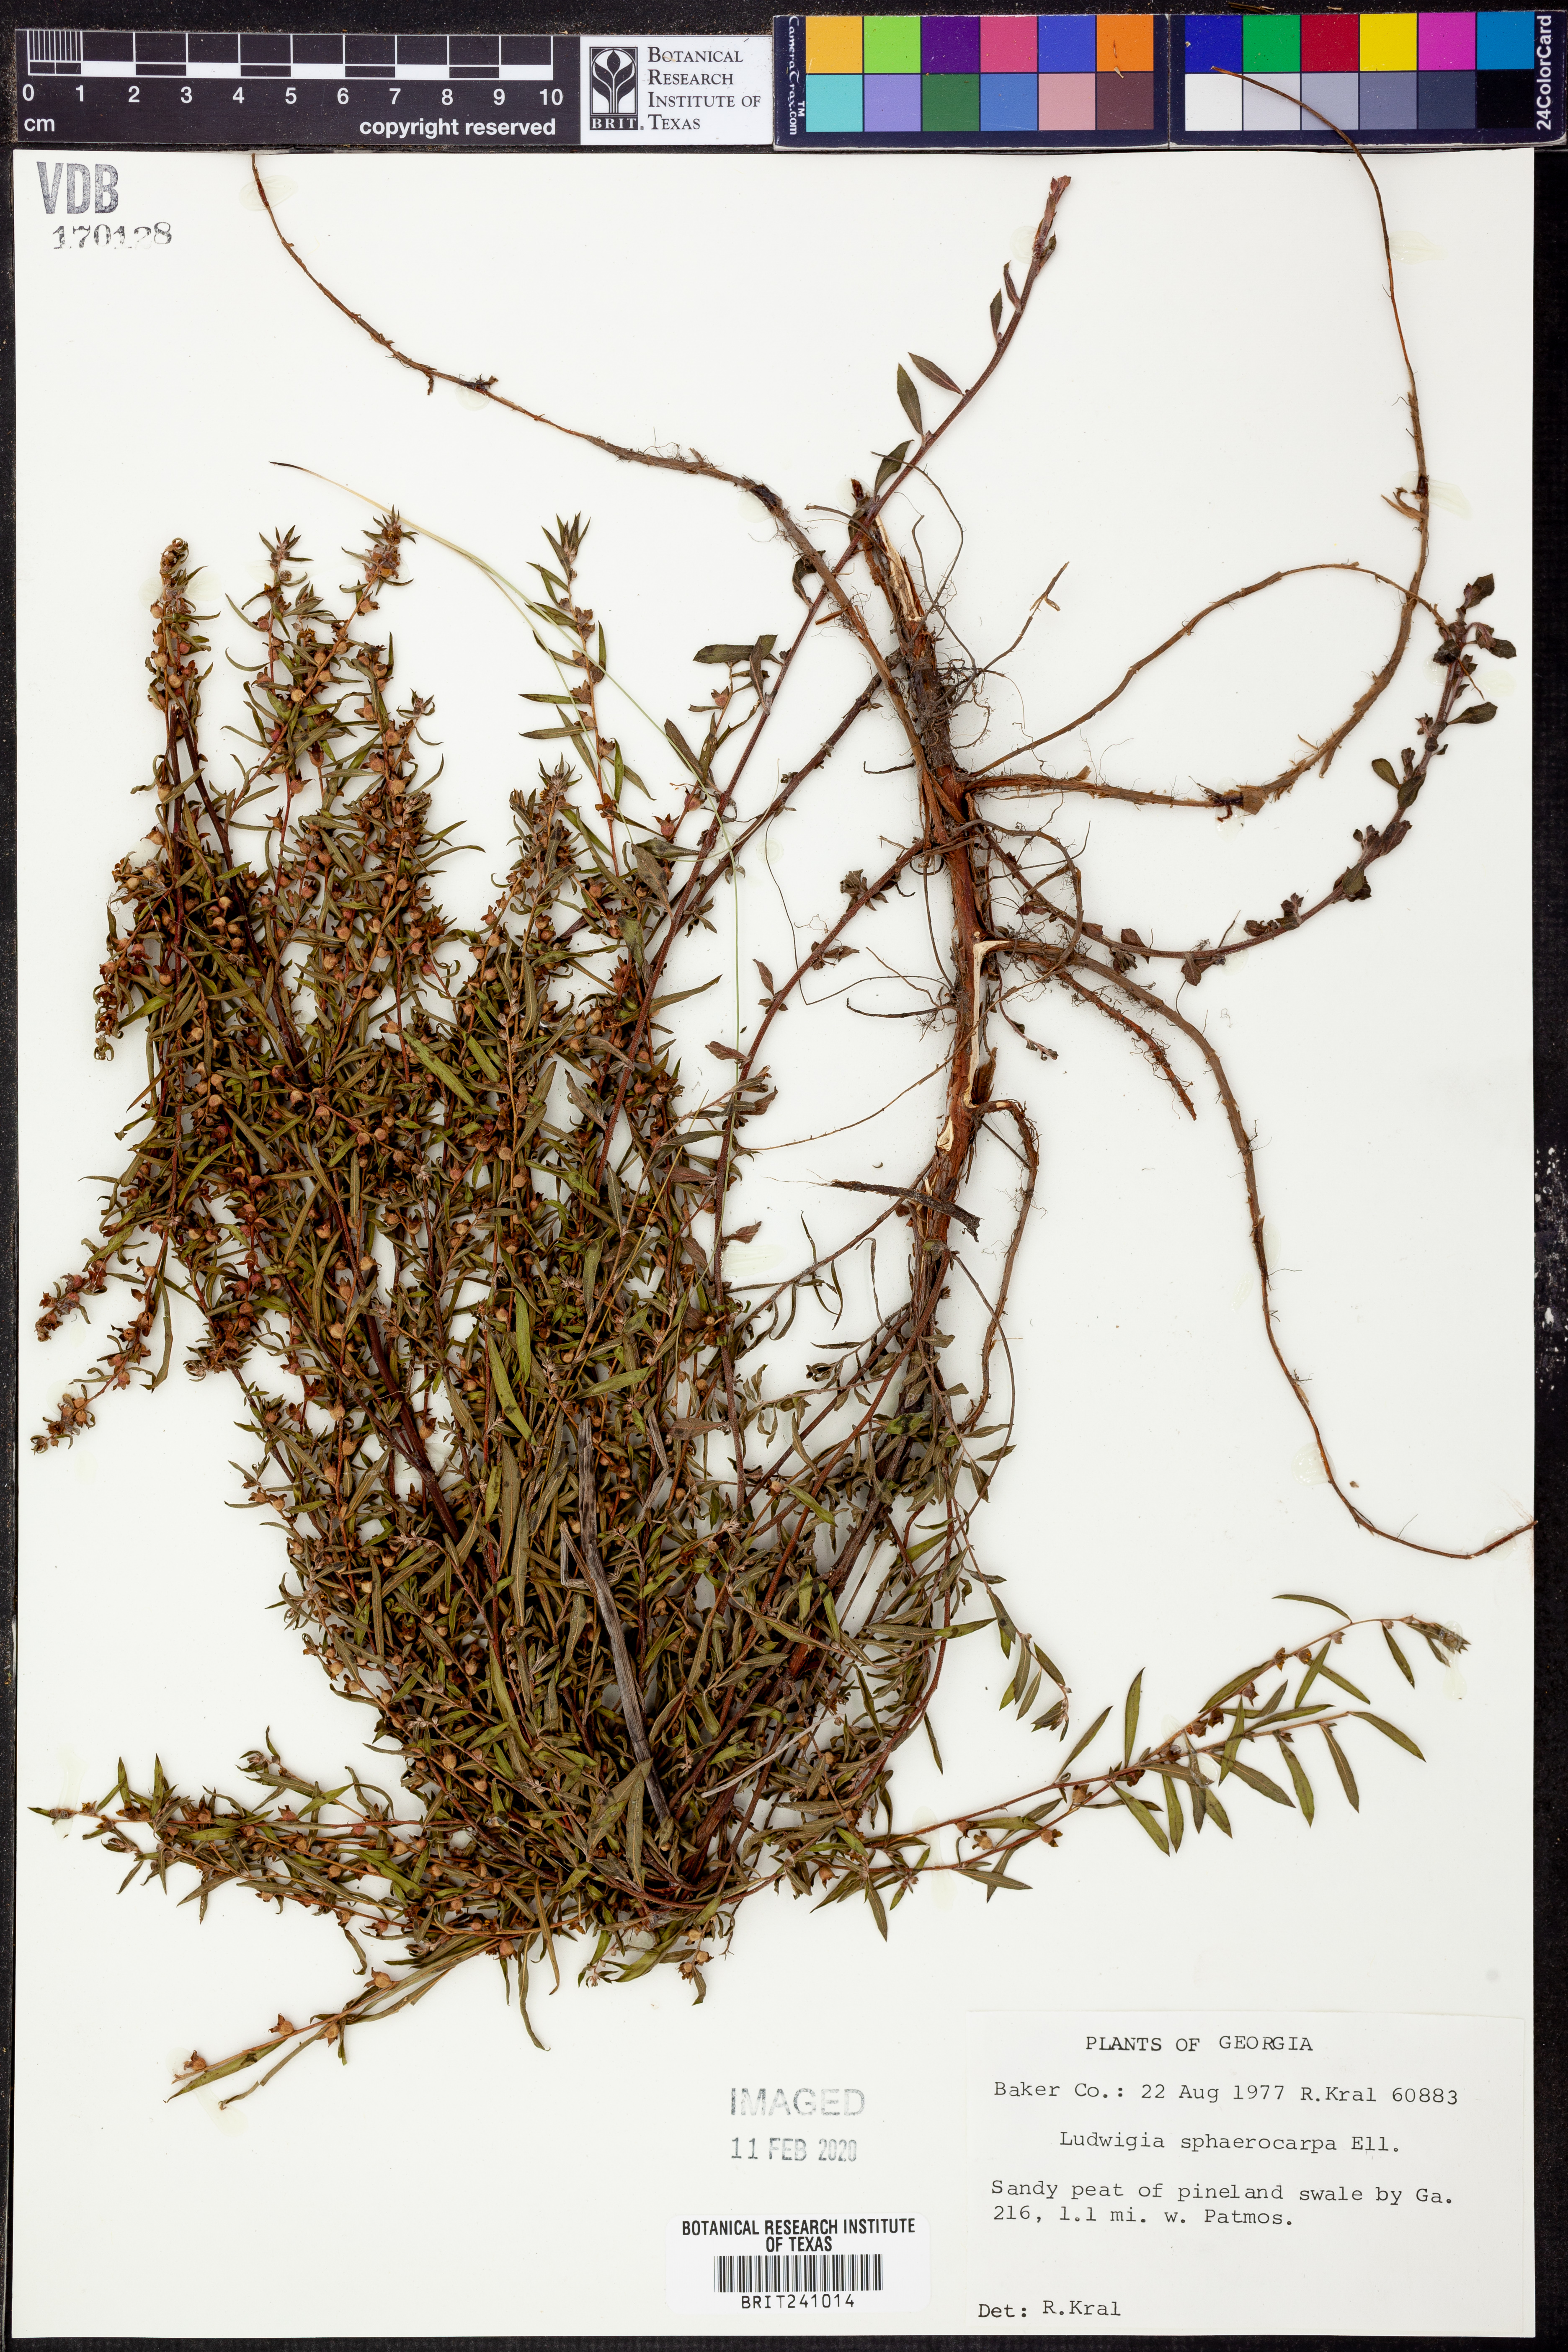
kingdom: Plantae
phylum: Tracheophyta
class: Magnoliopsida
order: Myrtales
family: Onagraceae
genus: Ludwigia
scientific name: Ludwigia sphaerocarpa
